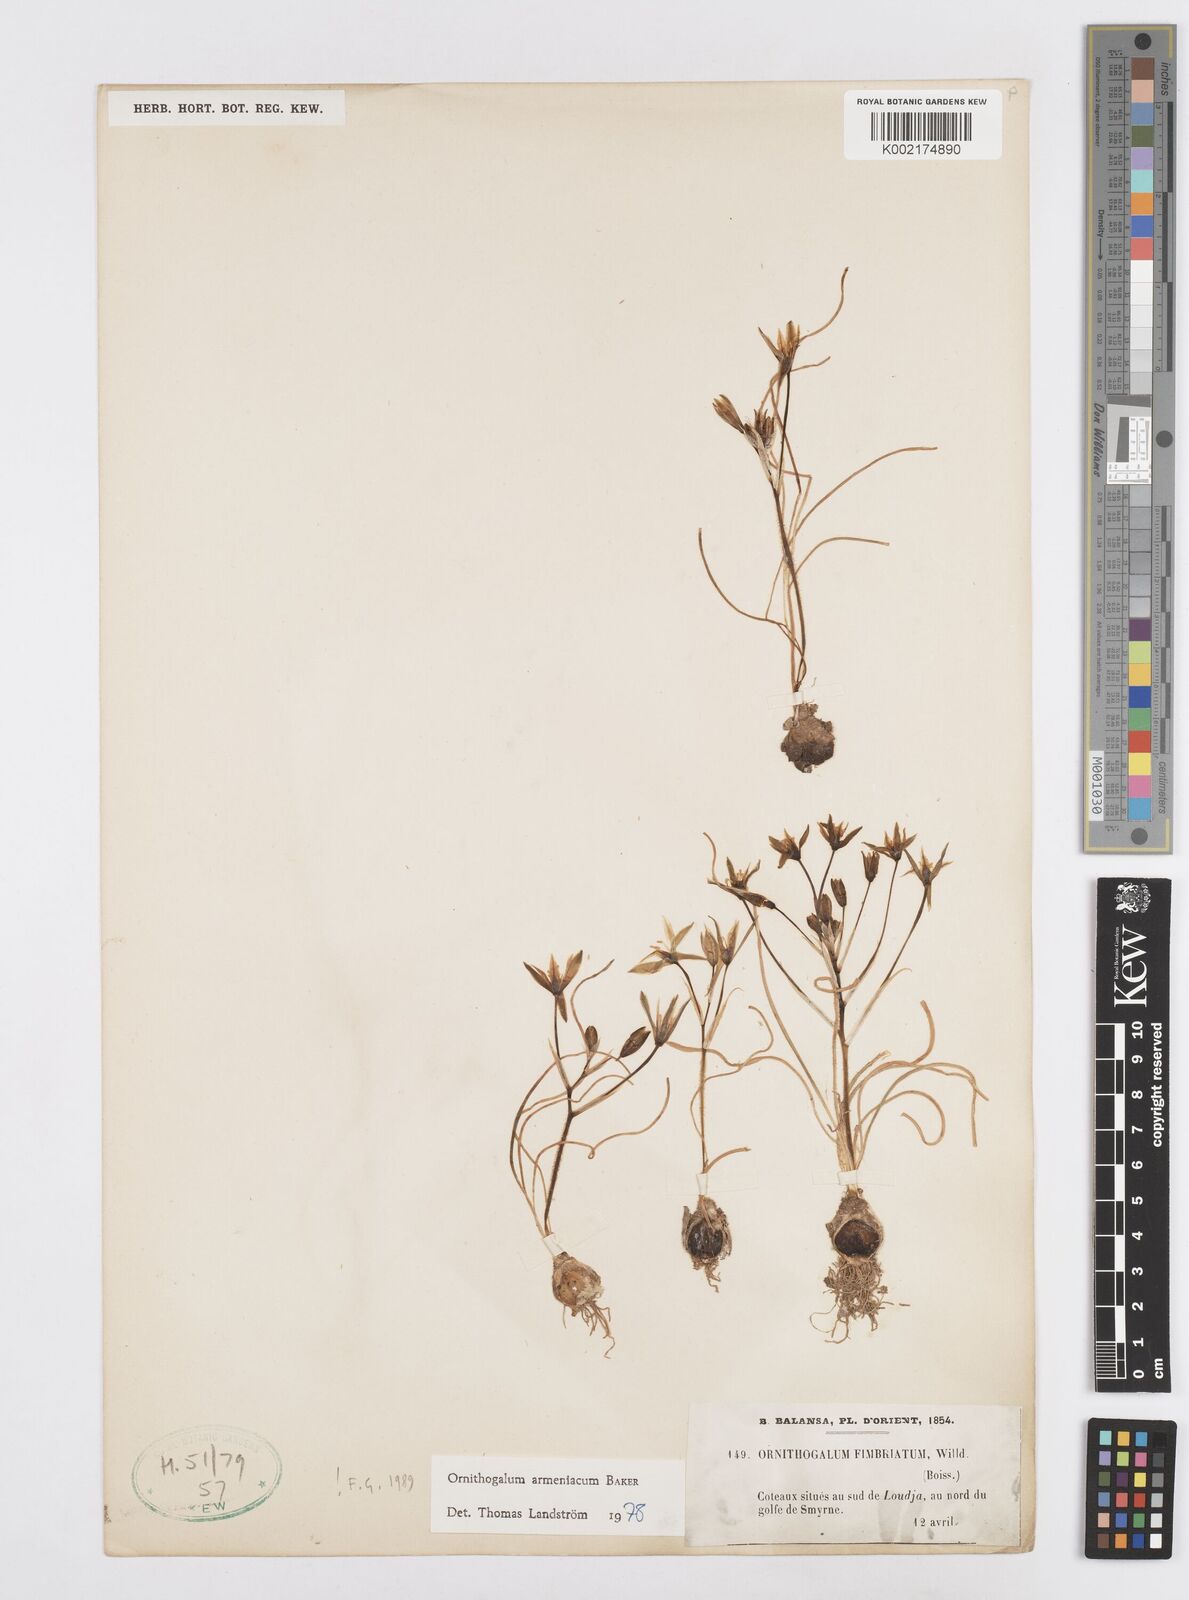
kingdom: Plantae
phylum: Tracheophyta
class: Liliopsida
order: Asparagales
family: Asparagaceae
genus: Ornithogalum
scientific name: Ornithogalum armeniacum
